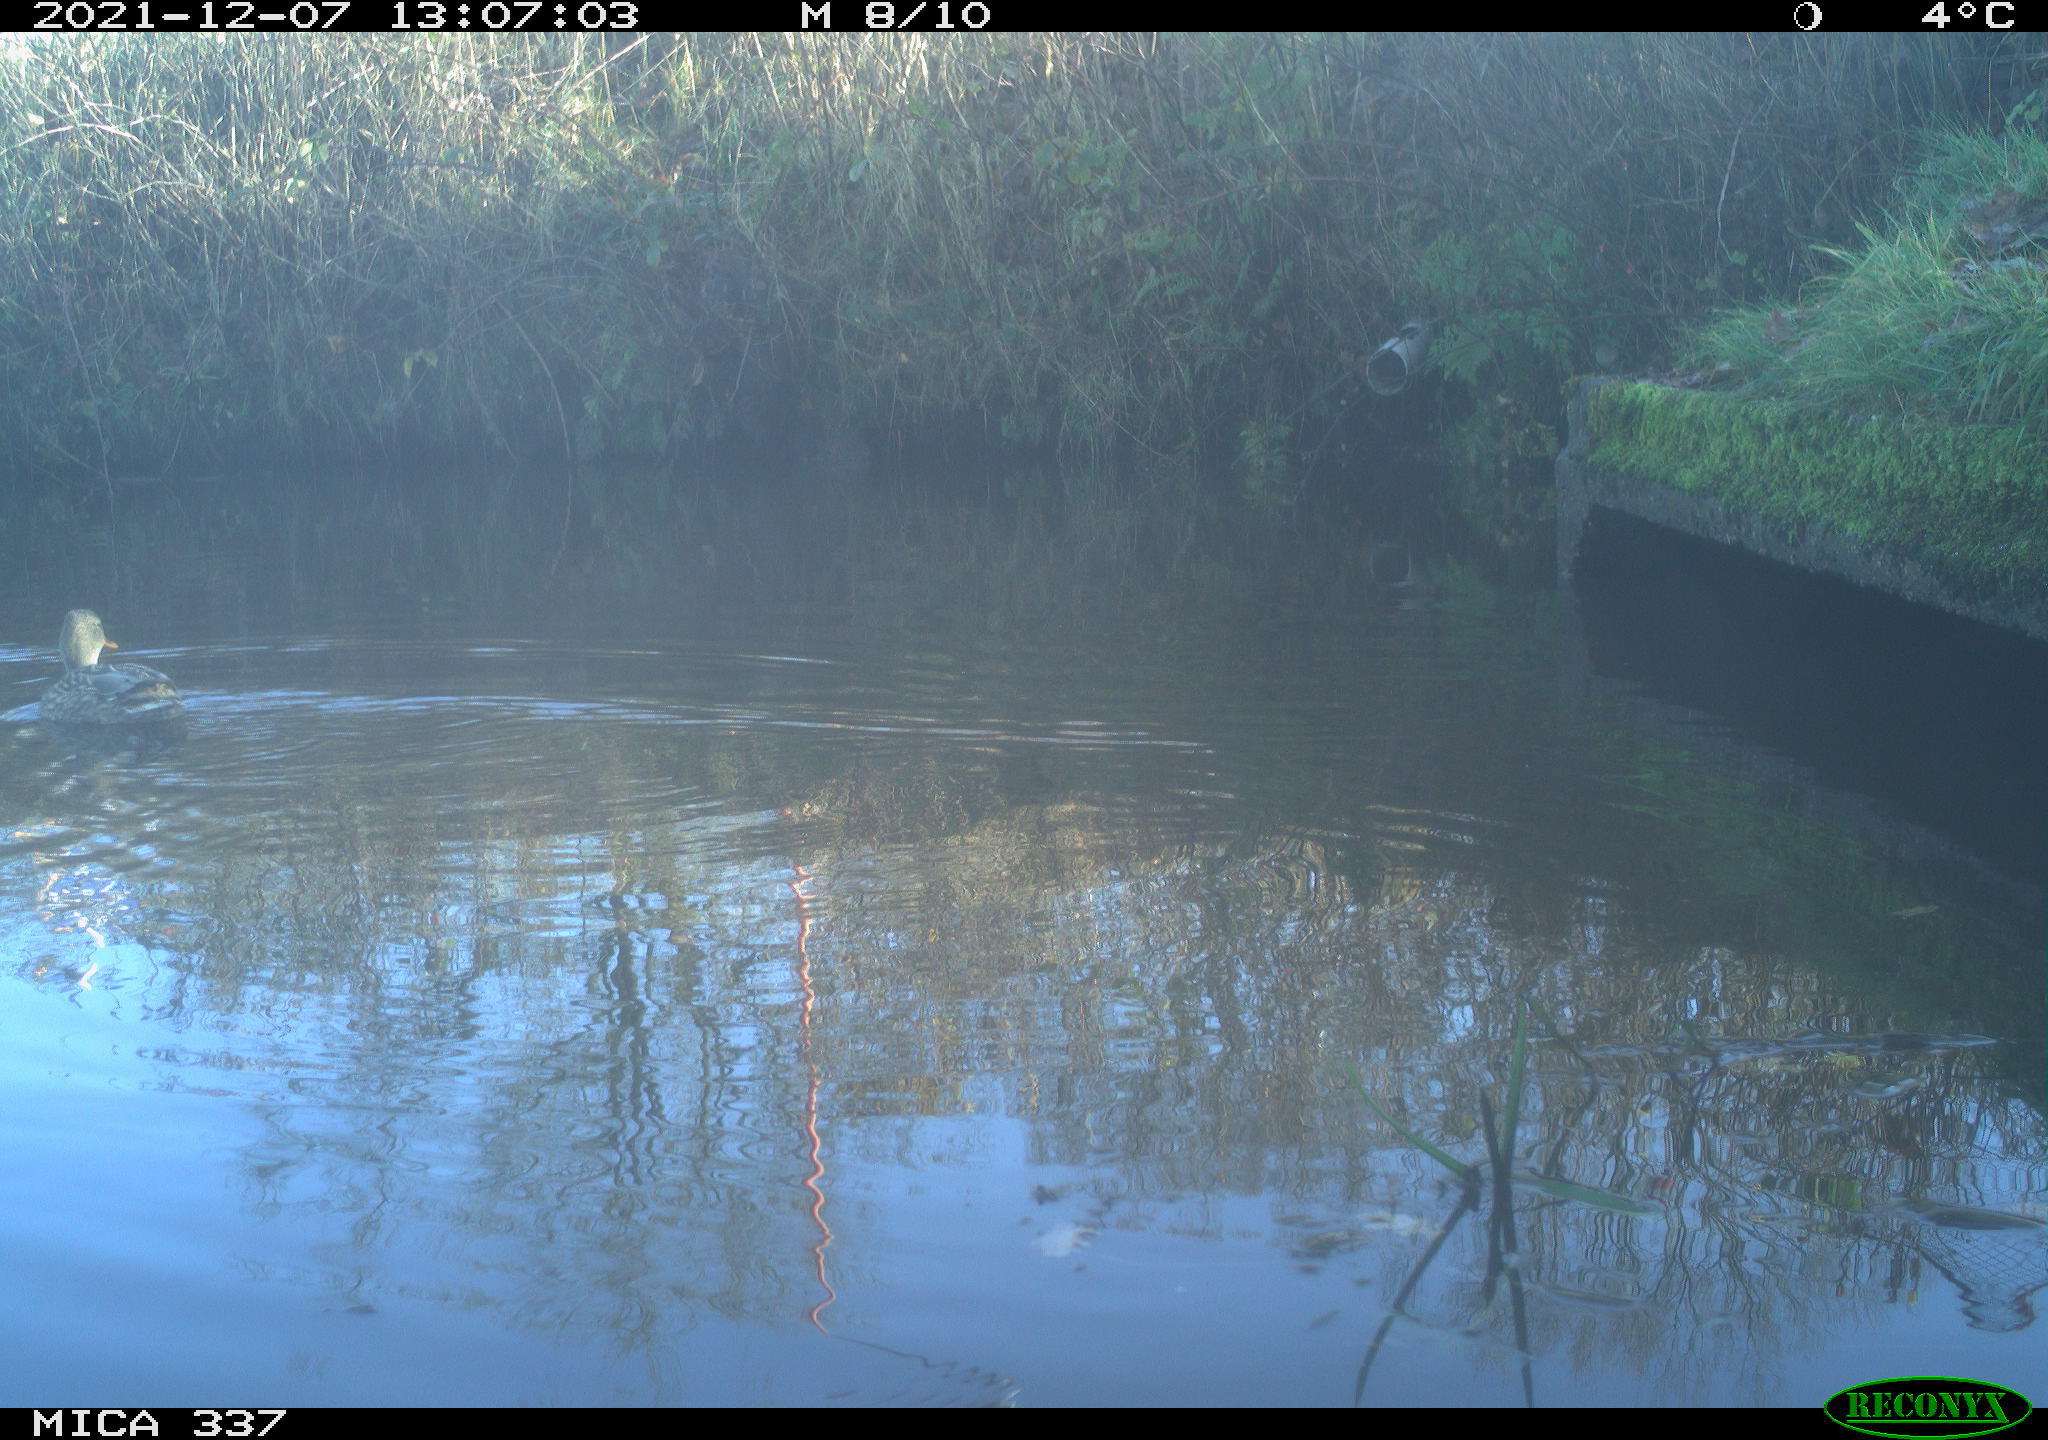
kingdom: Animalia
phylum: Chordata
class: Aves
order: Anseriformes
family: Anatidae
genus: Anas
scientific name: Anas platyrhynchos
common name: Mallard
